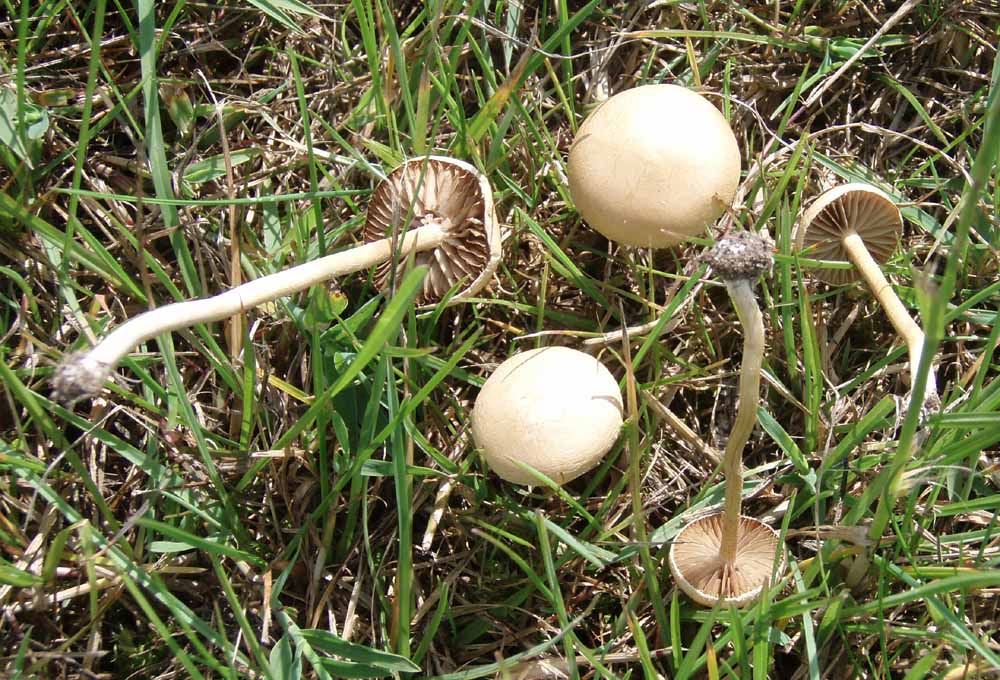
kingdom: Fungi
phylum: Basidiomycota
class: Agaricomycetes
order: Agaricales
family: Strophariaceae
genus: Agrocybe
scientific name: Agrocybe pediades
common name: almindelig agerhat
